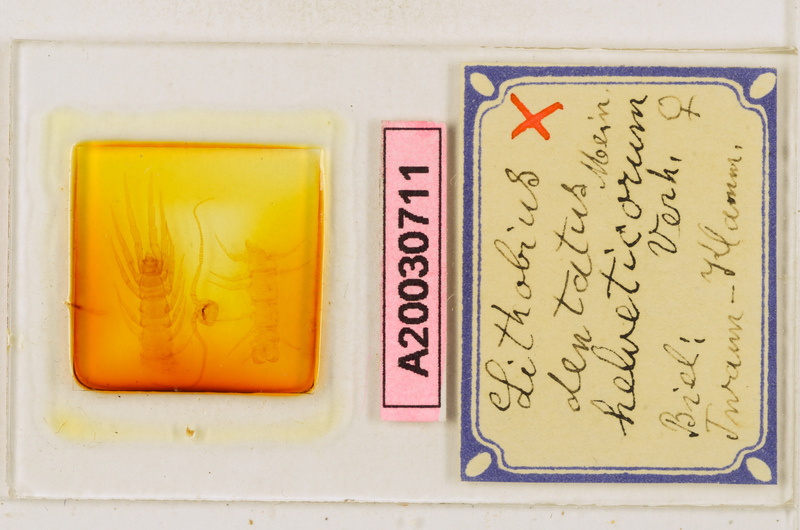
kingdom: Animalia
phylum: Arthropoda
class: Chilopoda
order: Lithobiomorpha
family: Lithobiidae
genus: Lithobius
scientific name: Lithobius dentatus
